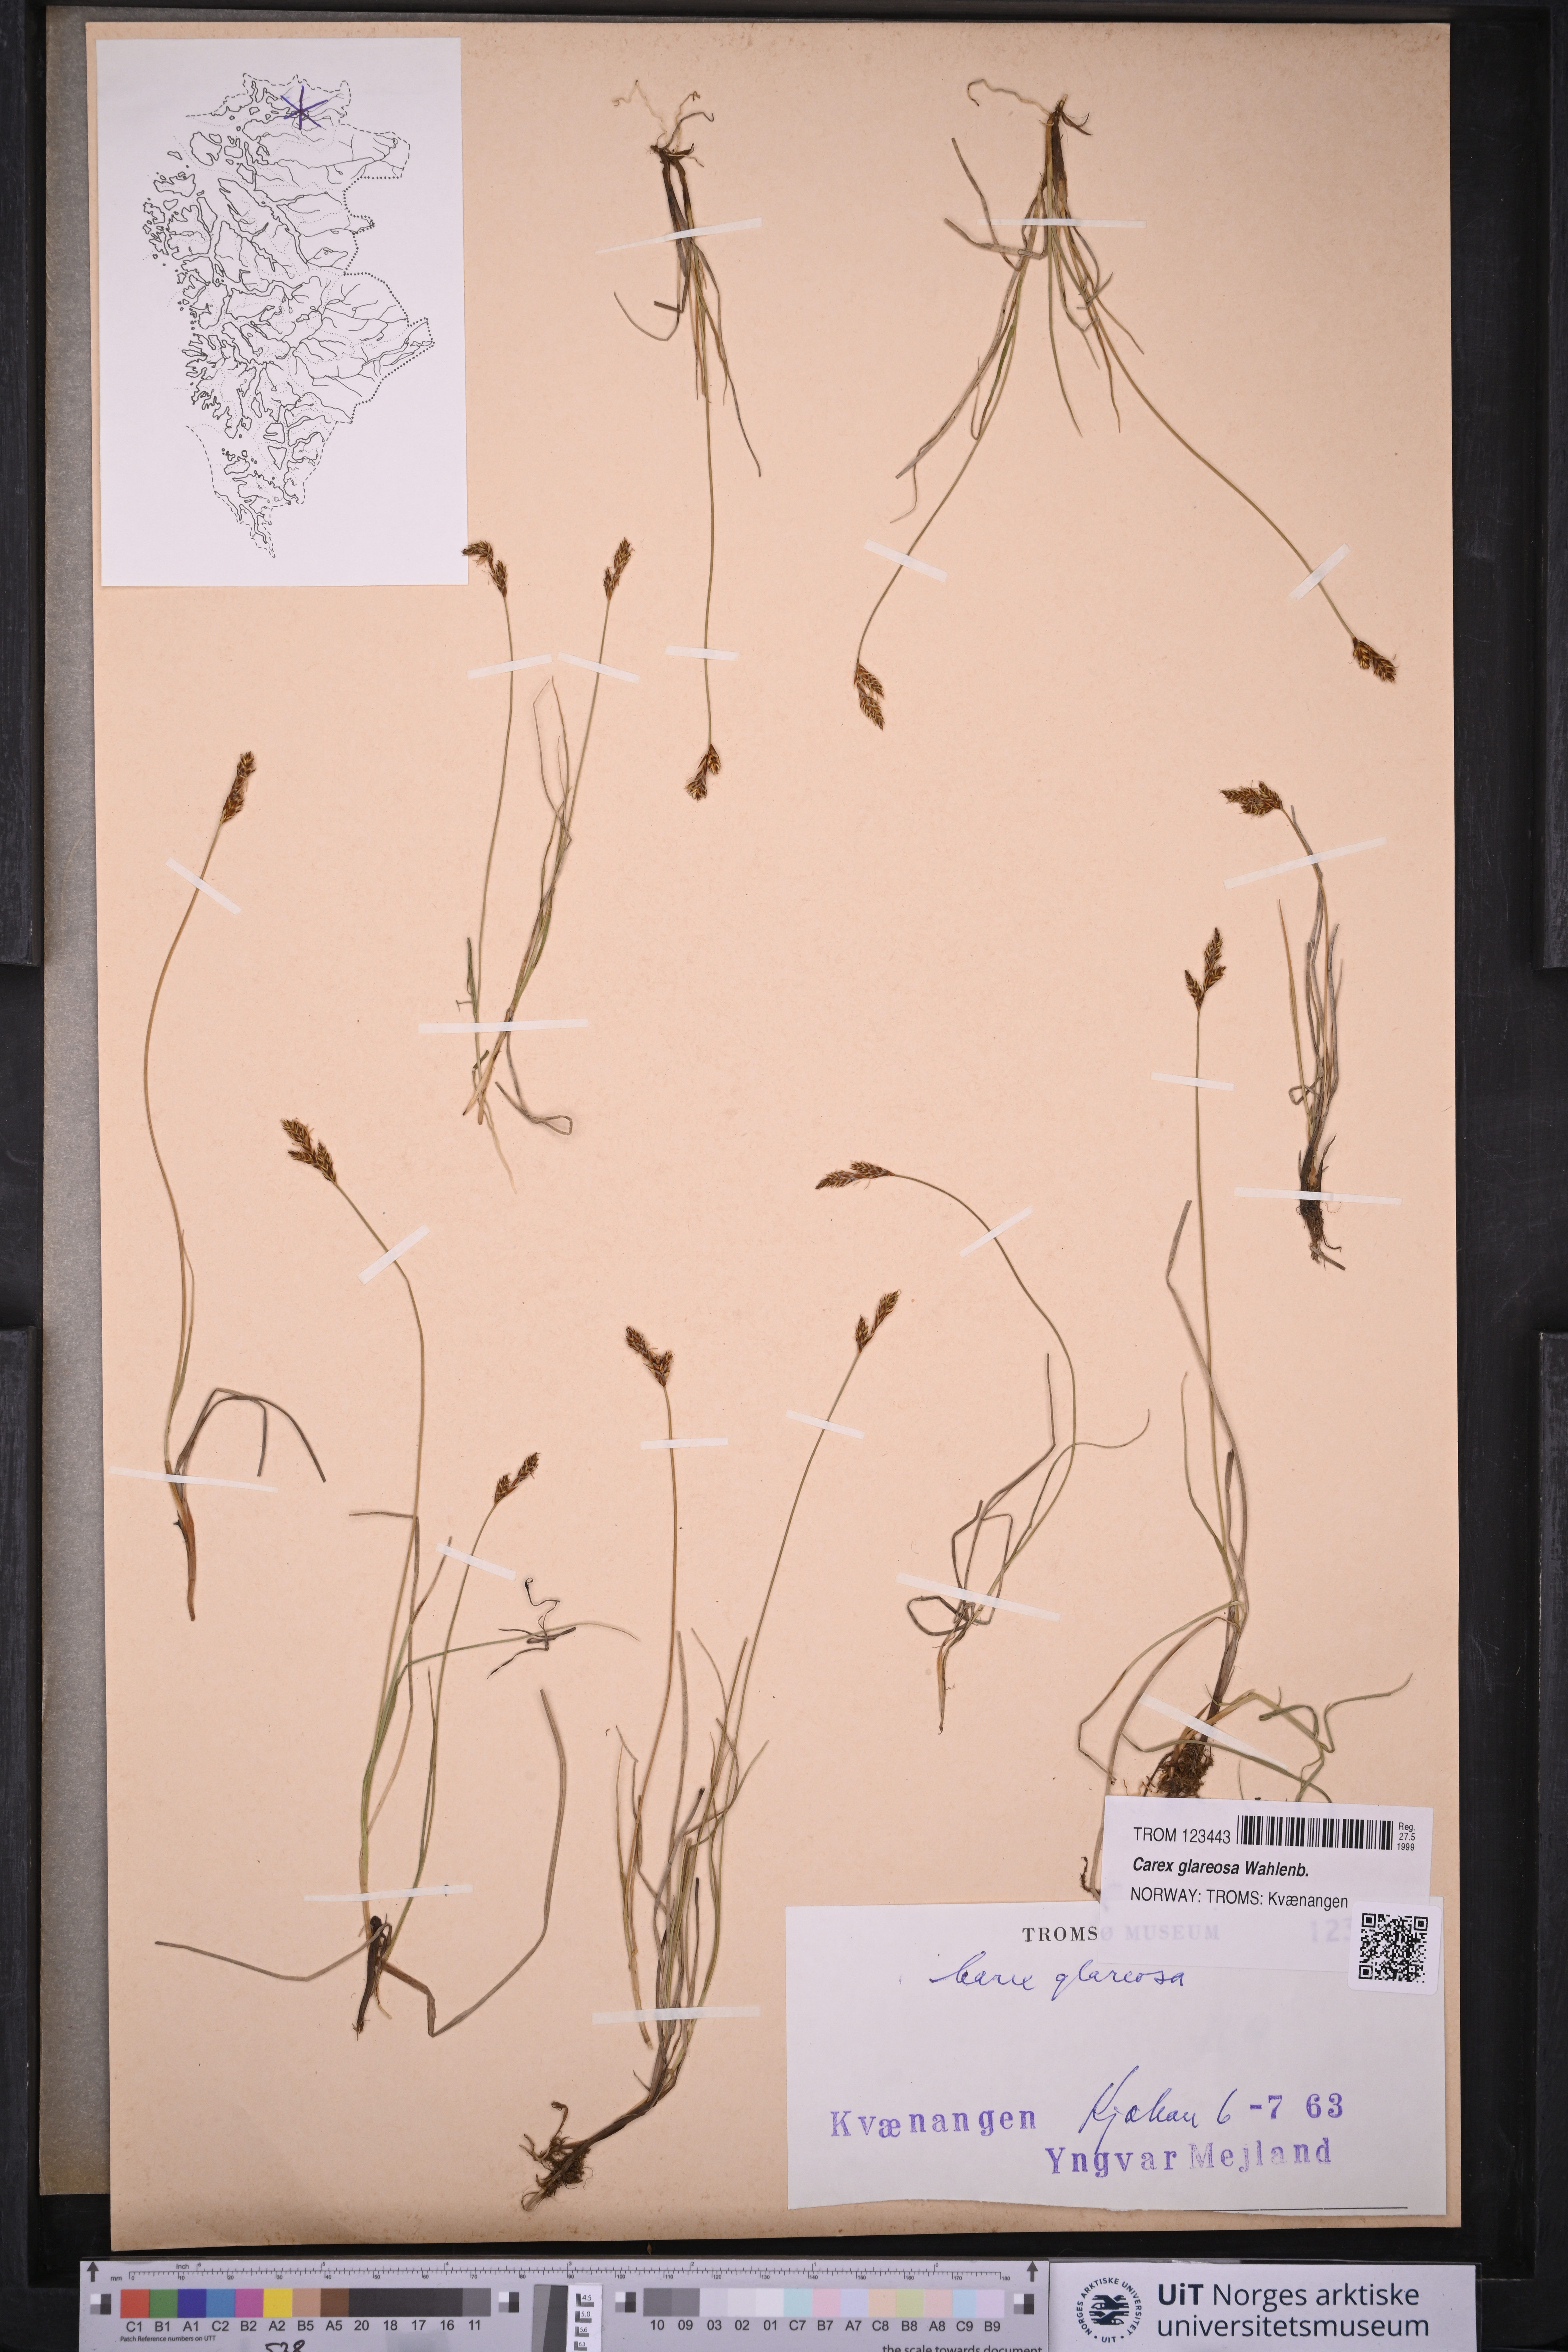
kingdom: Plantae
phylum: Tracheophyta
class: Liliopsida
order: Poales
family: Cyperaceae
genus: Carex
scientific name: Carex glareosa
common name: Clustered sedge
